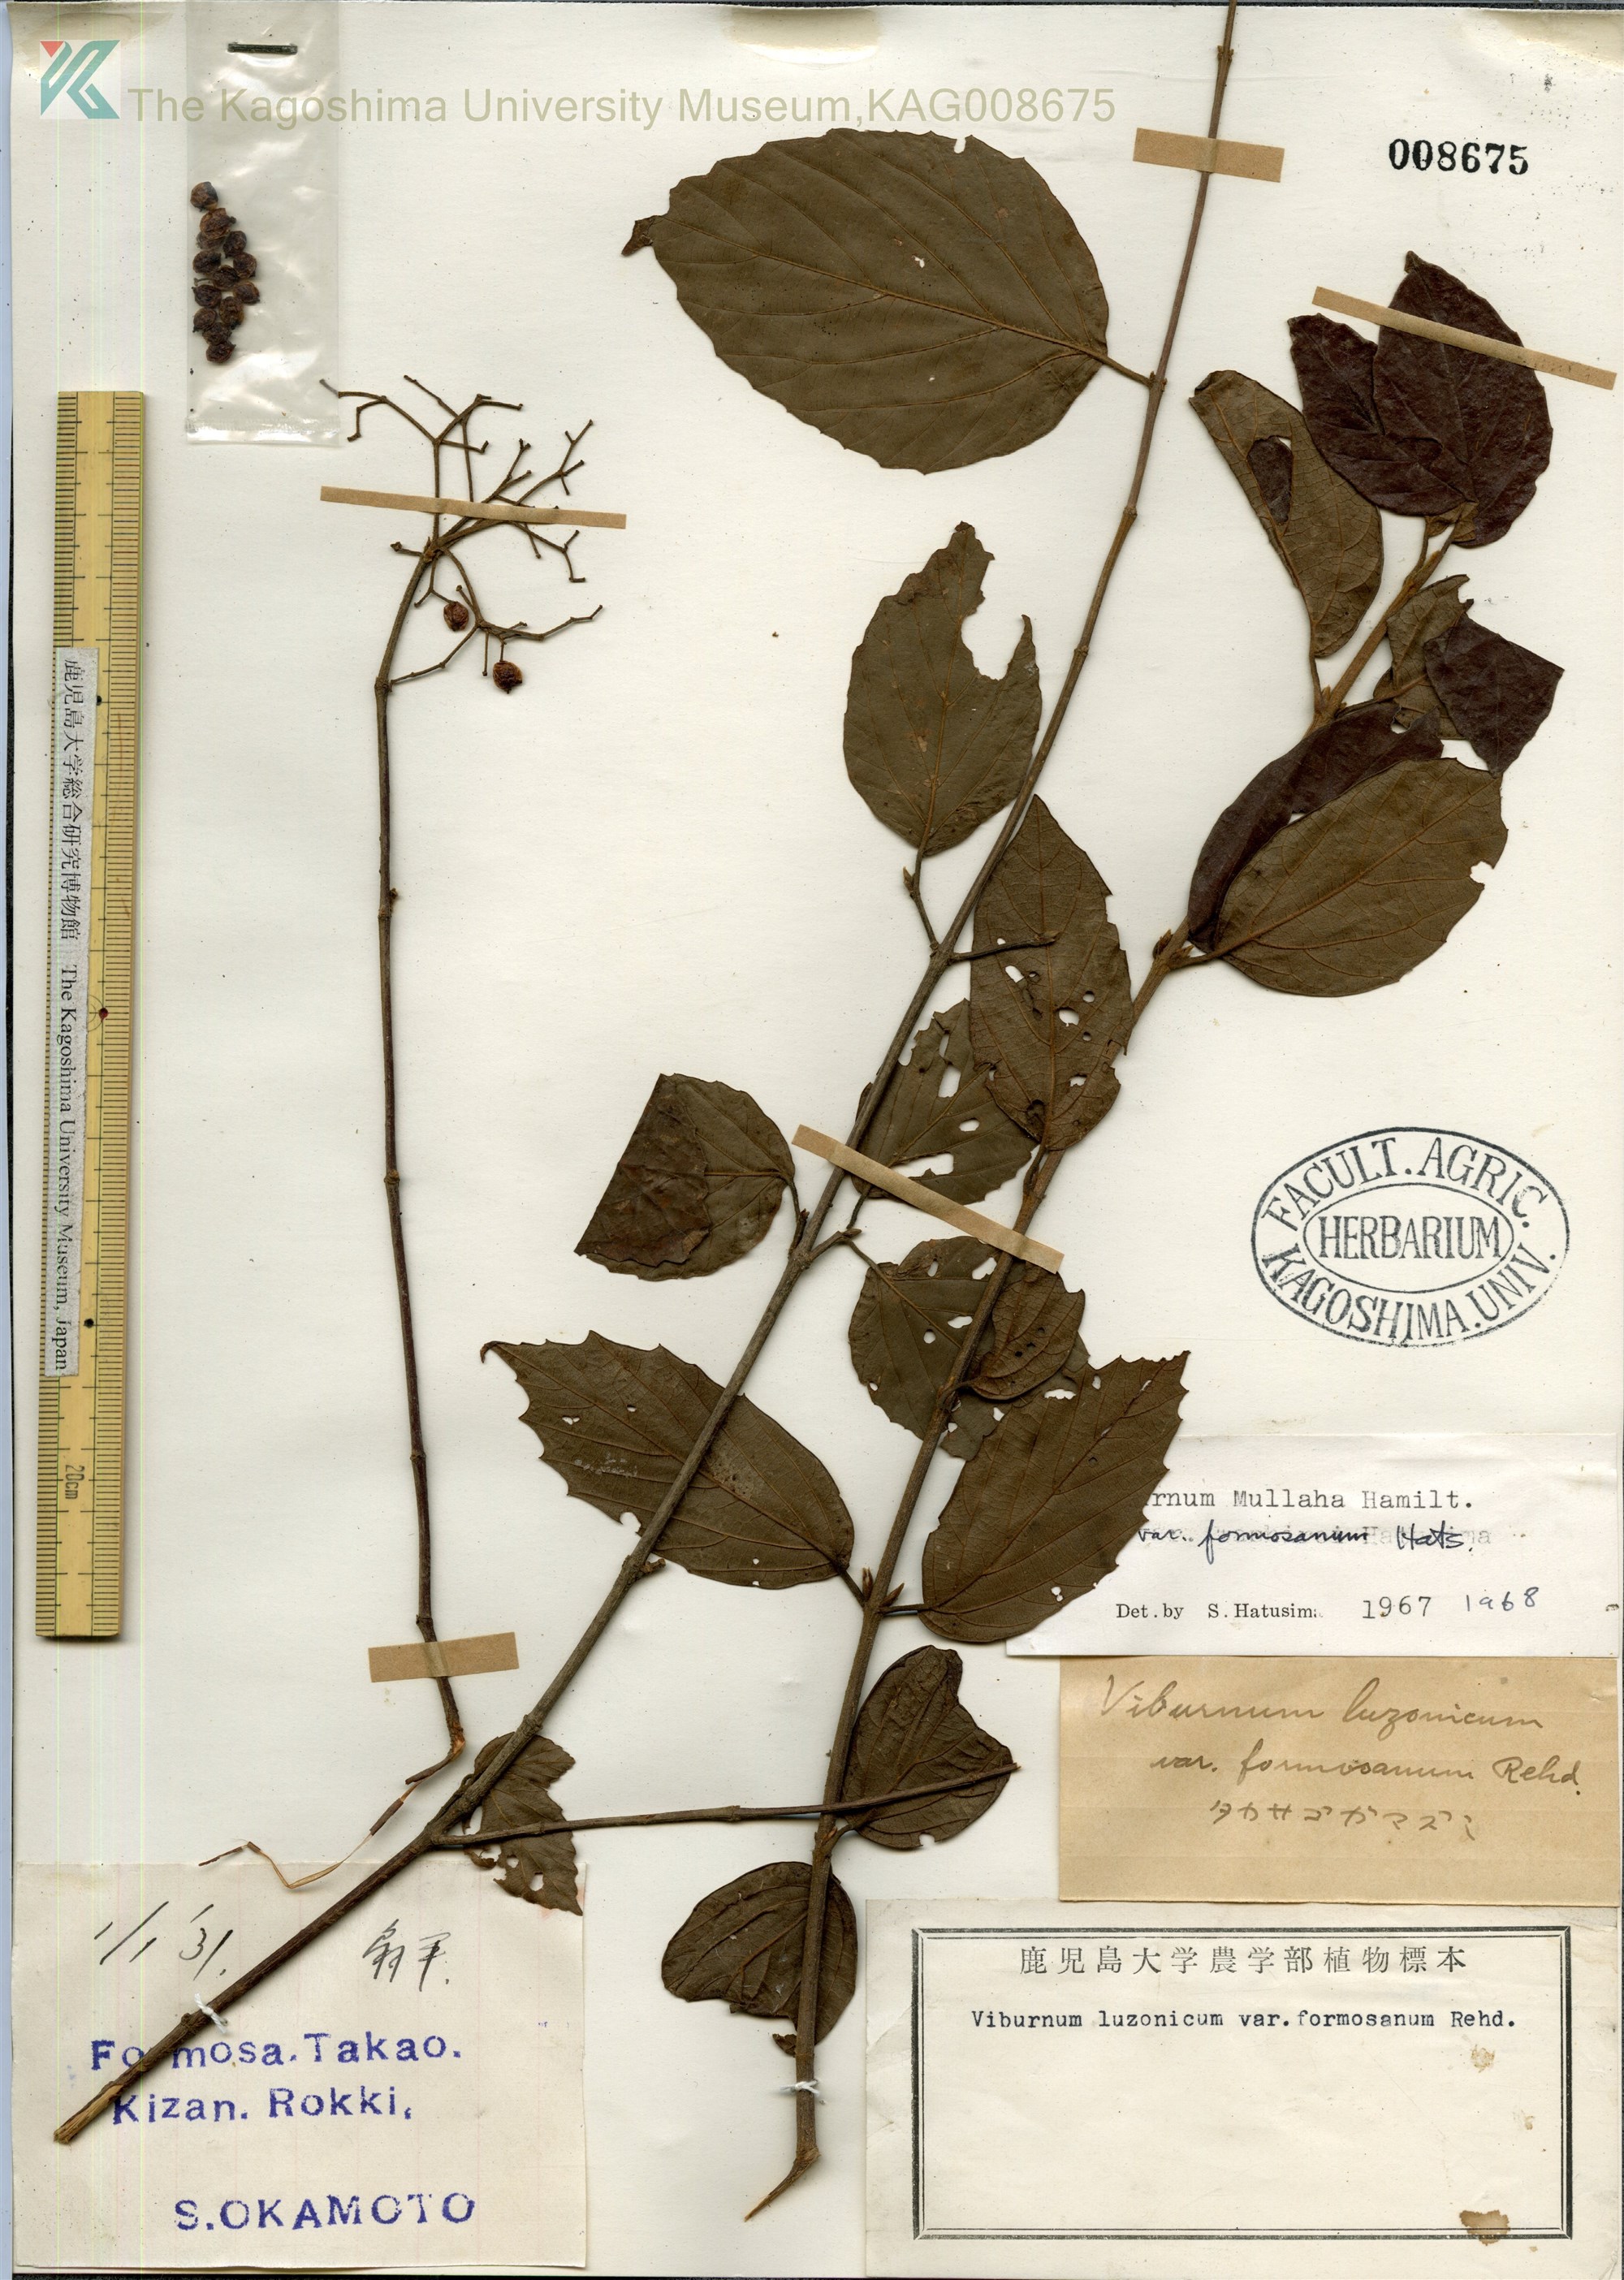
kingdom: Plantae
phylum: Tracheophyta
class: Magnoliopsida
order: Dipsacales
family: Viburnaceae
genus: Viburnum
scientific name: Viburnum mullaha
